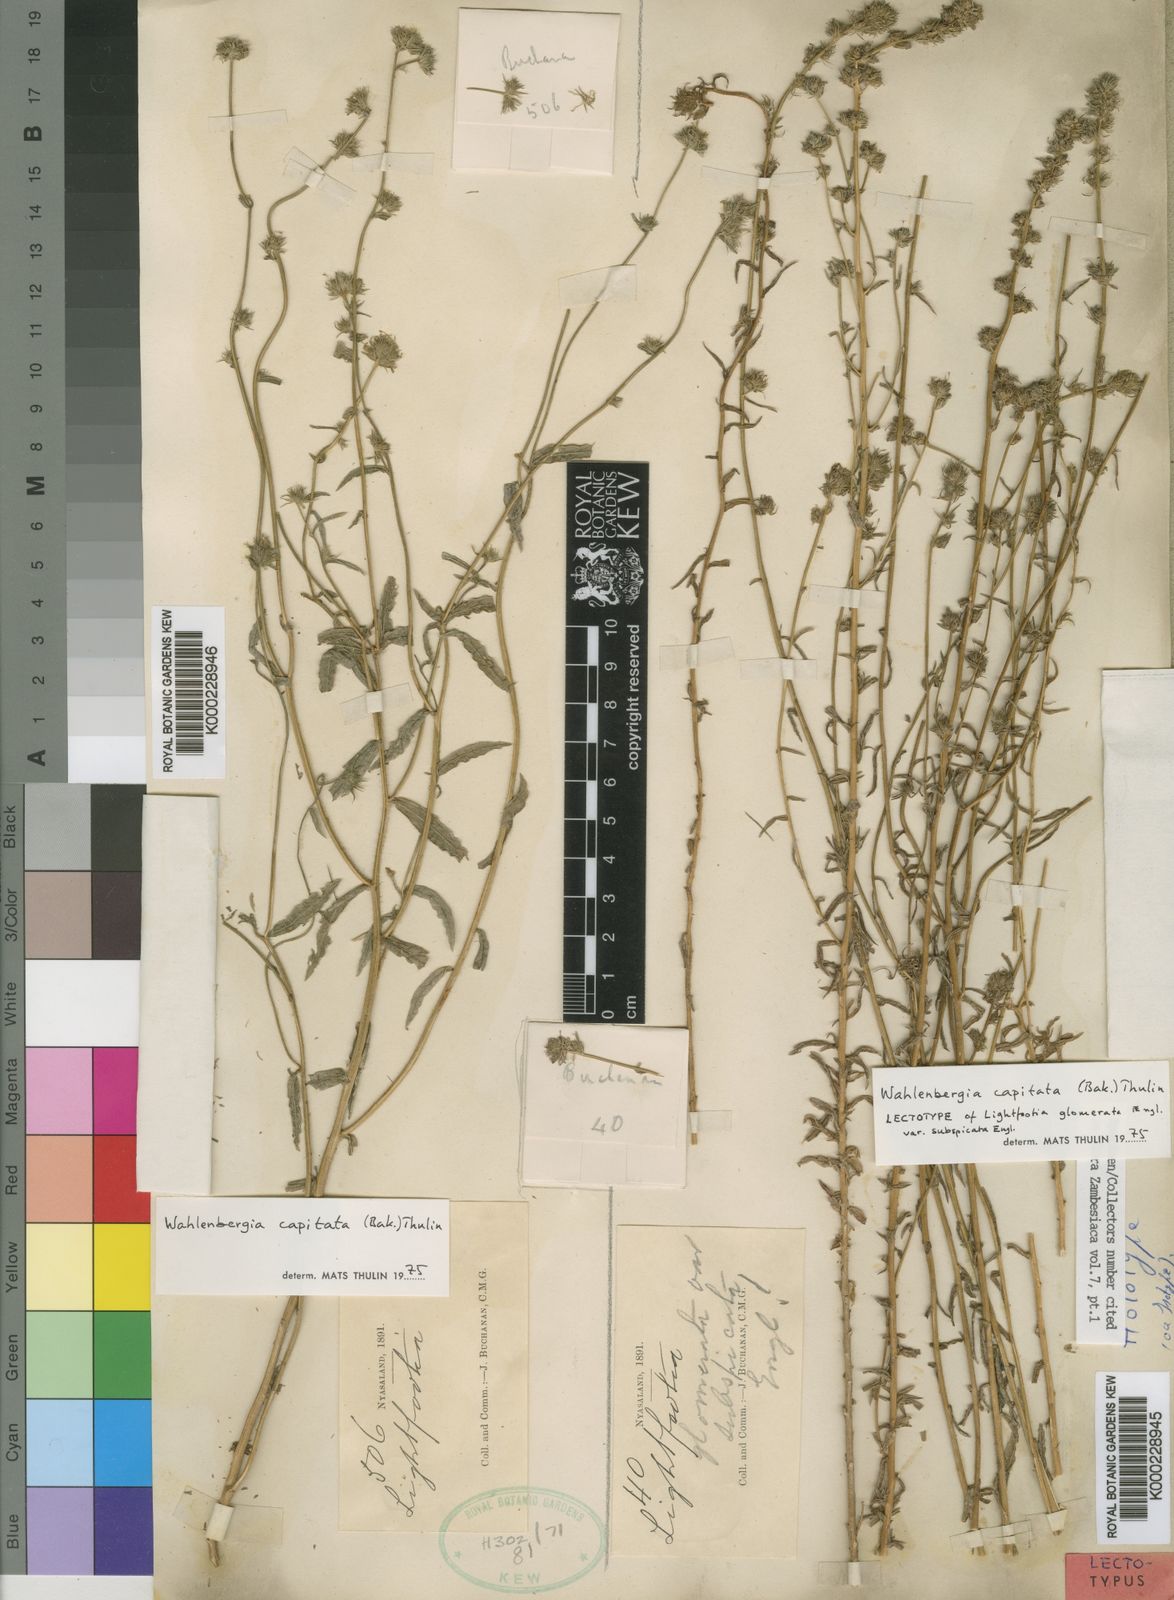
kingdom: Plantae
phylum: Tracheophyta
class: Magnoliopsida
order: Asterales
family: Campanulaceae
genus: Wahlenbergia
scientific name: Wahlenbergia capitata
